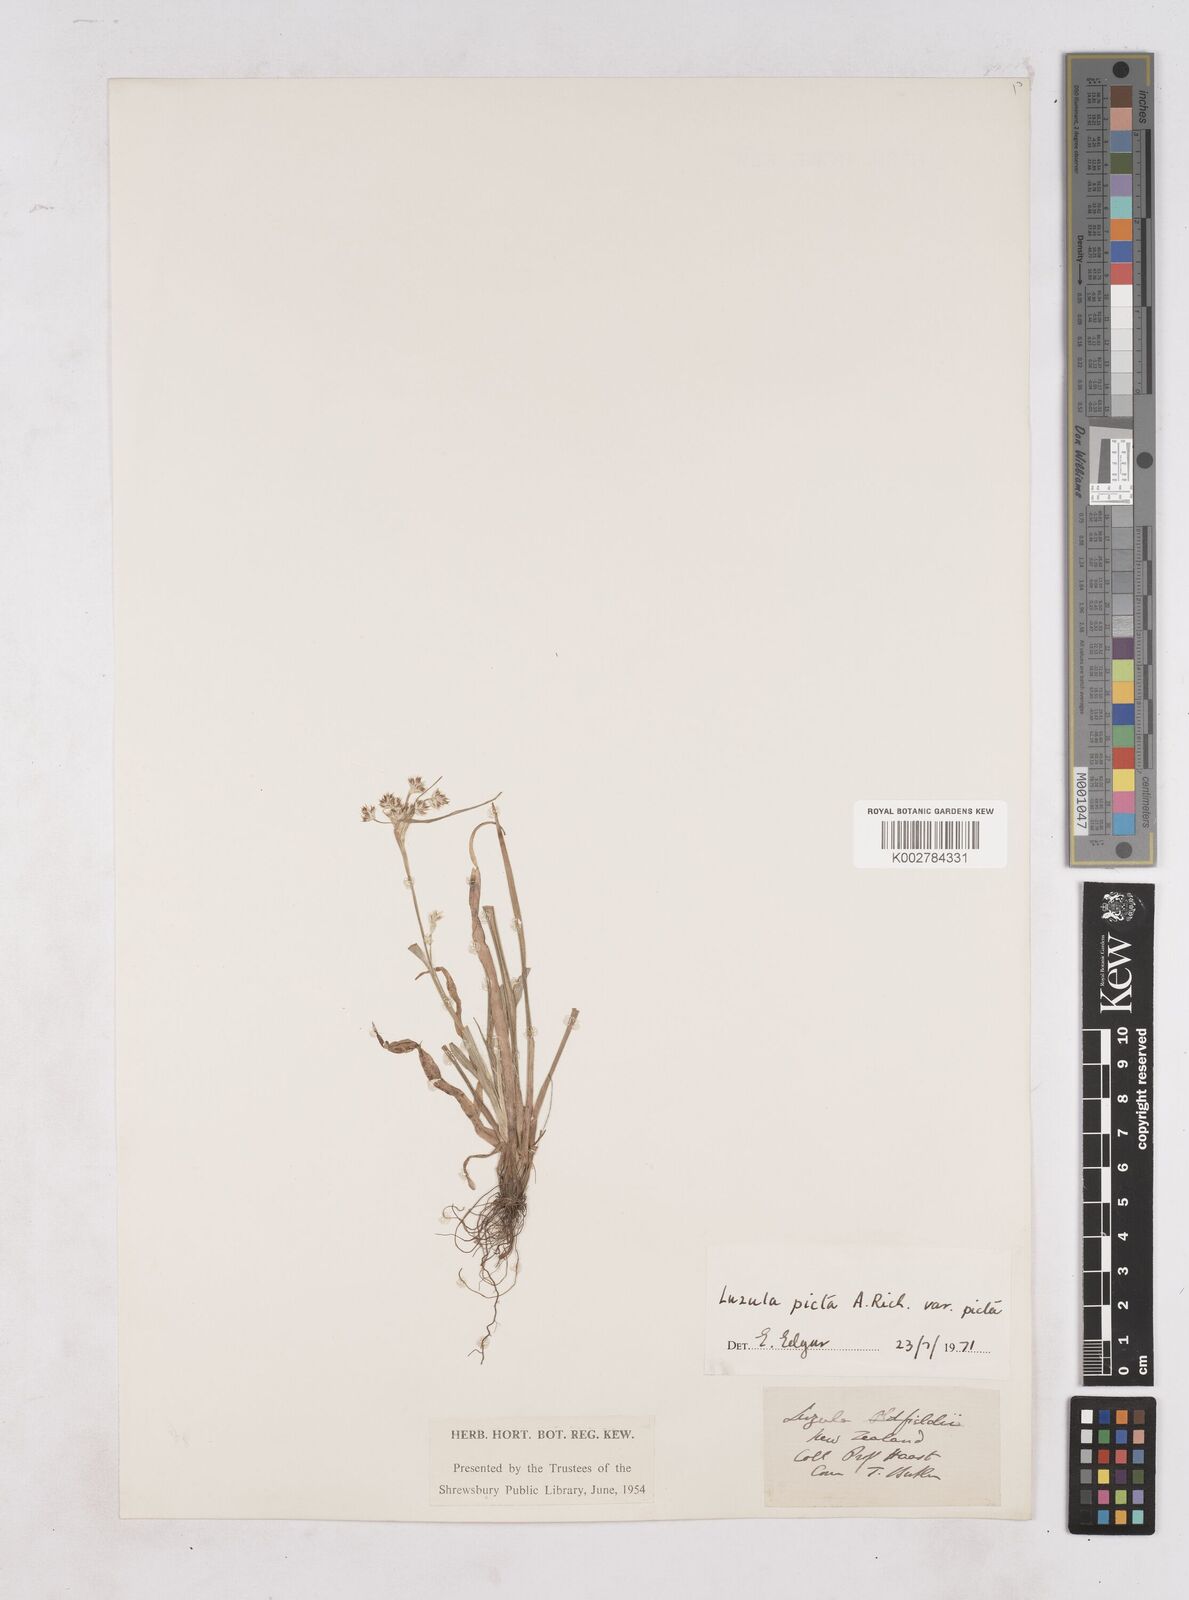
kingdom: Plantae
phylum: Tracheophyta
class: Liliopsida
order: Poales
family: Juncaceae
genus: Luzula
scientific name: Luzula picta
